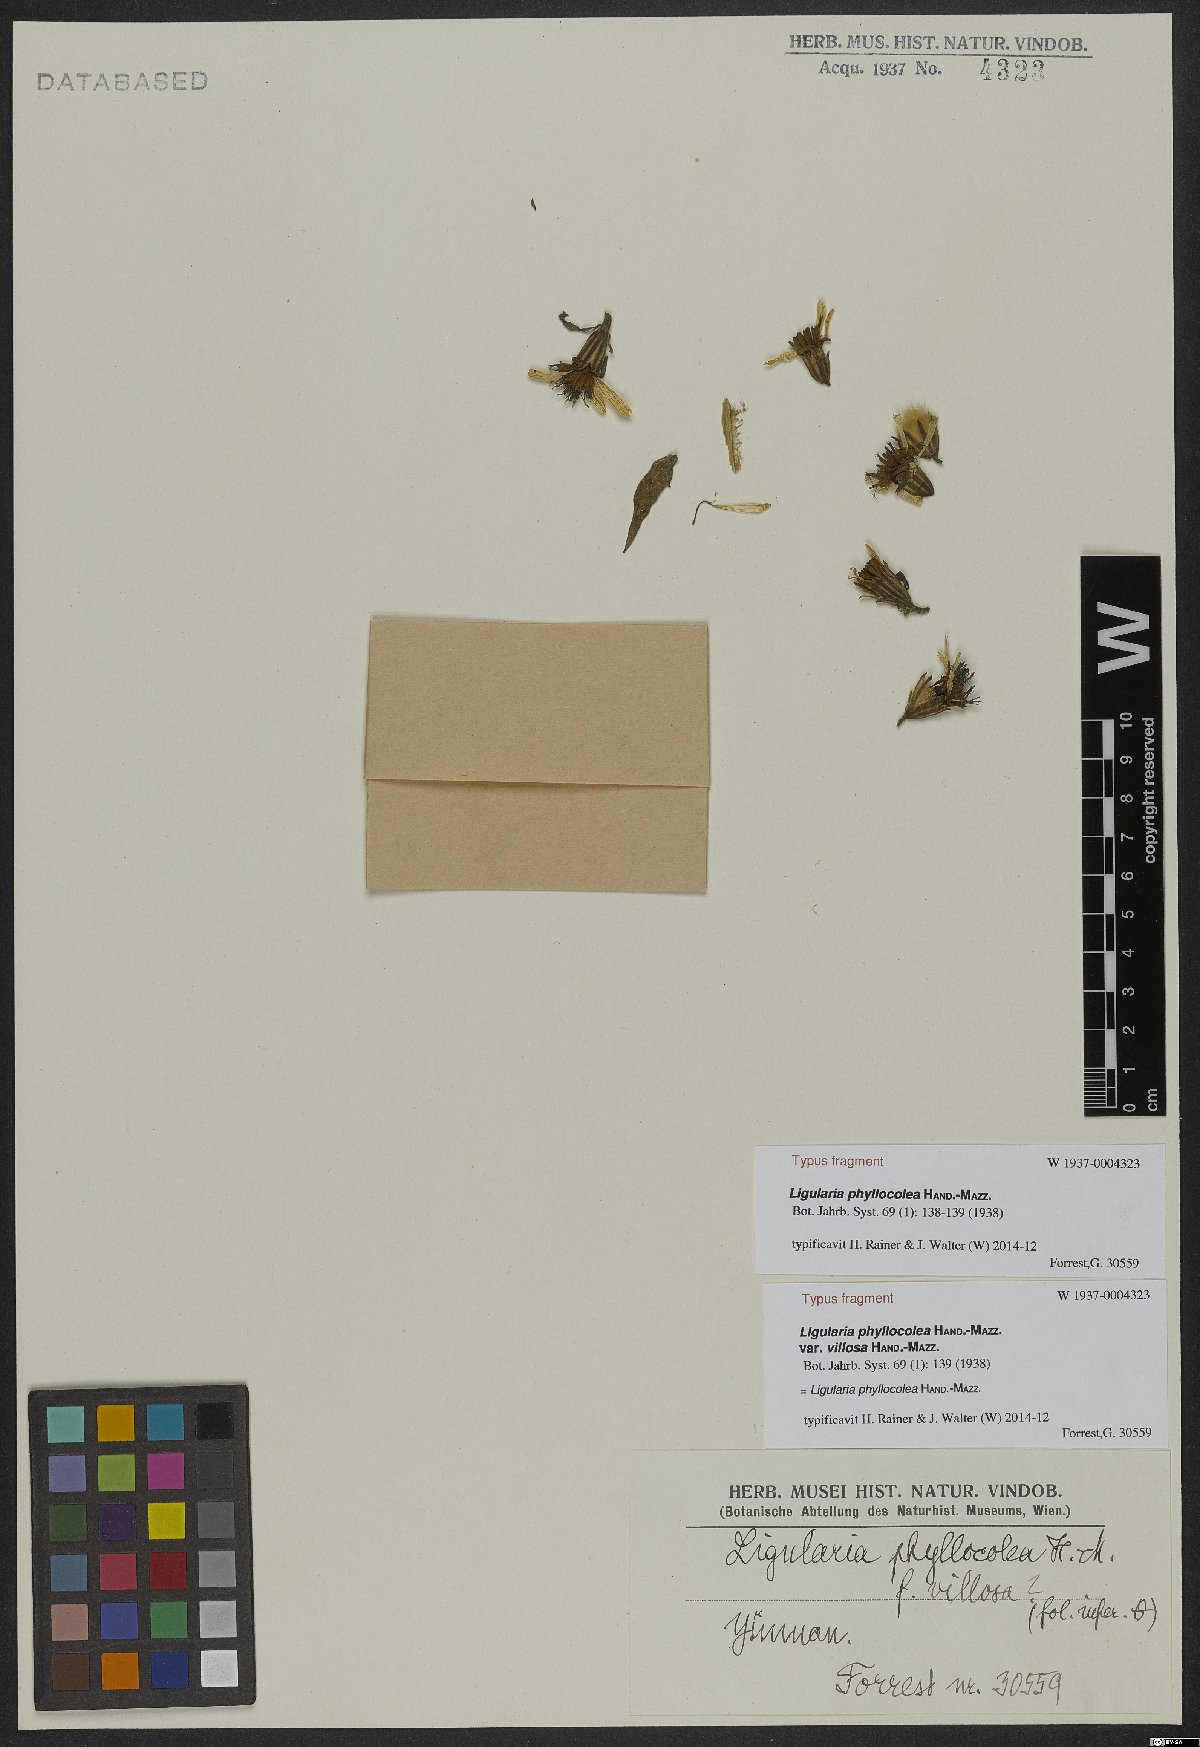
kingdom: Plantae
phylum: Tracheophyta
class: Magnoliopsida
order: Asterales
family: Asteraceae
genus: Ligularia
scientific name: Ligularia phyllocolea
